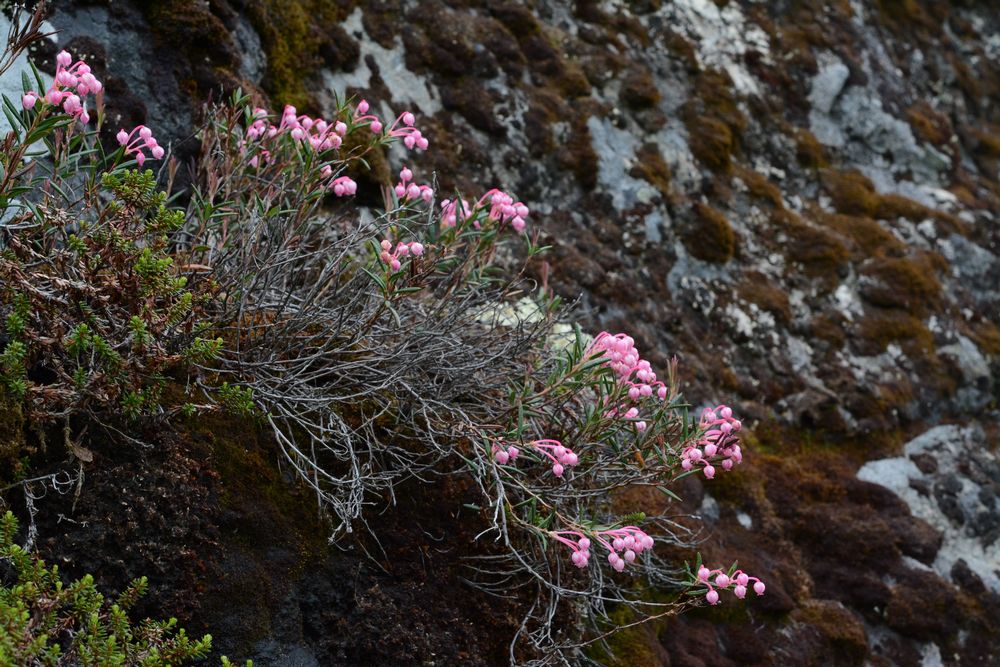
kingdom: Plantae
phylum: Tracheophyta
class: Magnoliopsida
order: Ericales
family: Ericaceae
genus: Andromeda
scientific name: Andromeda polifolia
